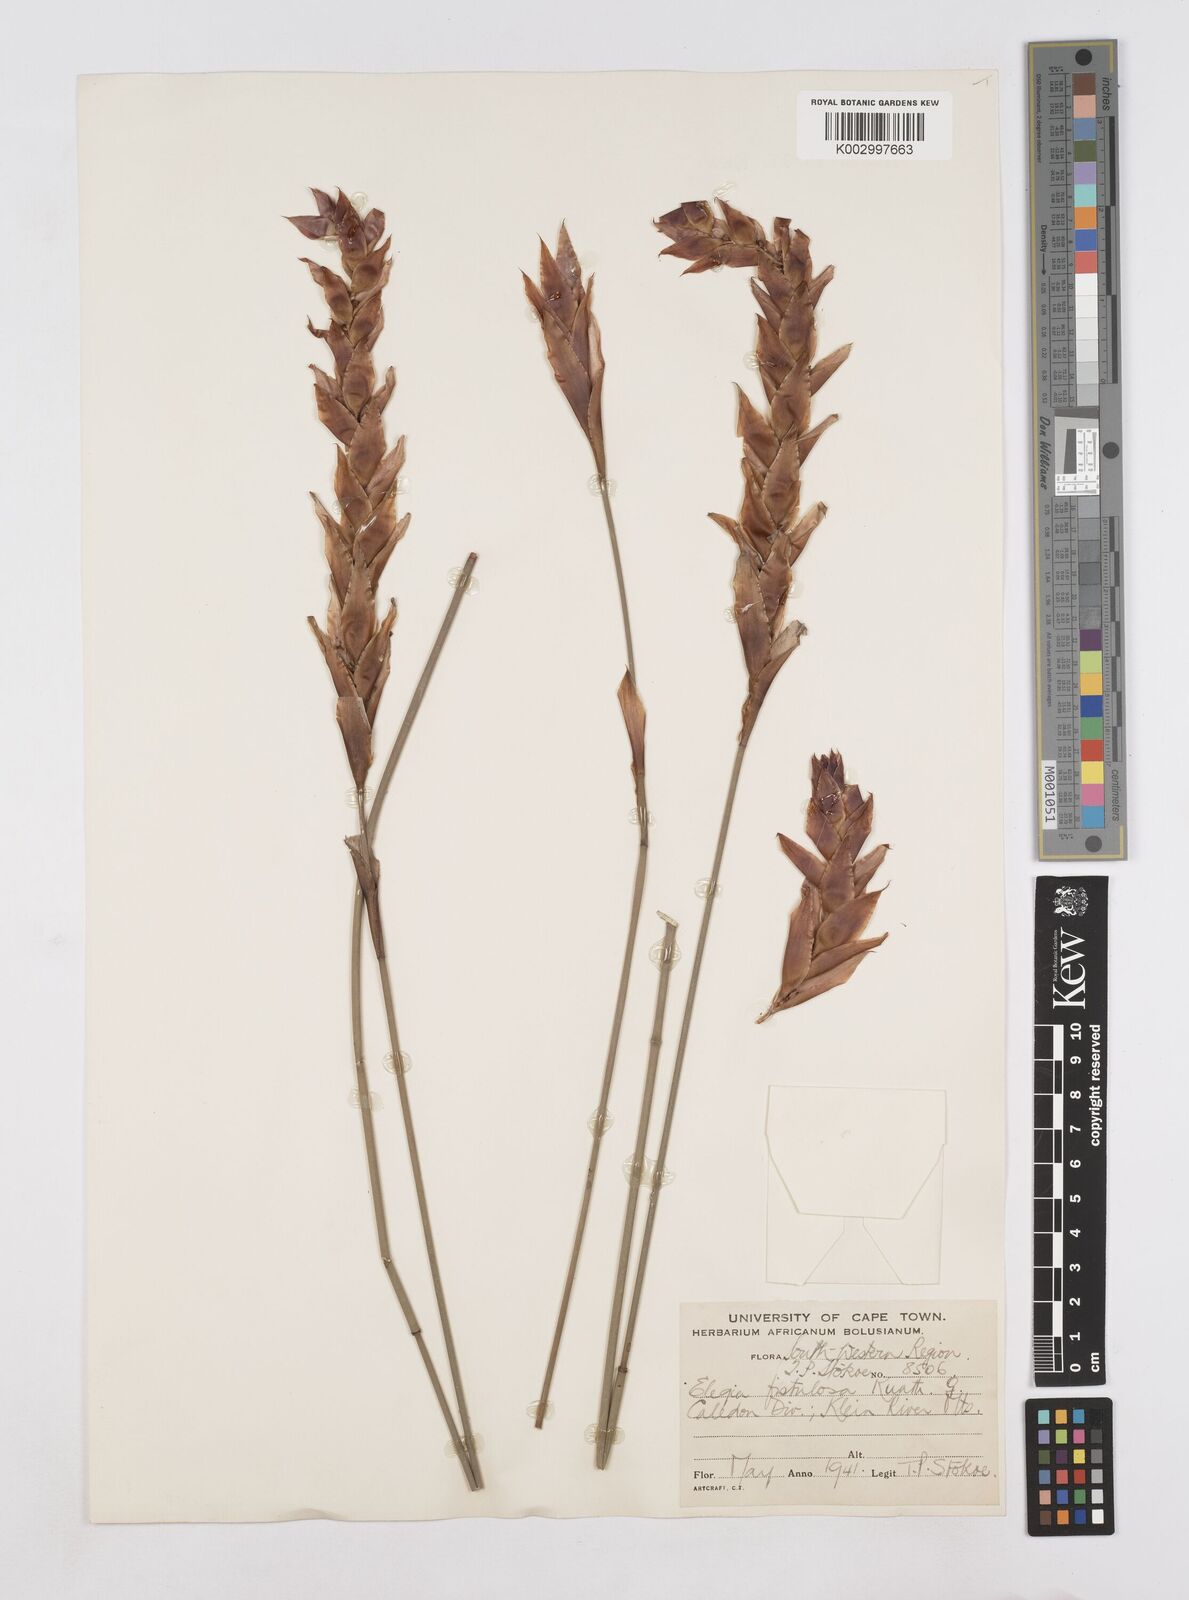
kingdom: Plantae
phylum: Tracheophyta
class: Liliopsida
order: Poales
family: Restionaceae
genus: Elegia
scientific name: Elegia fistulosa
